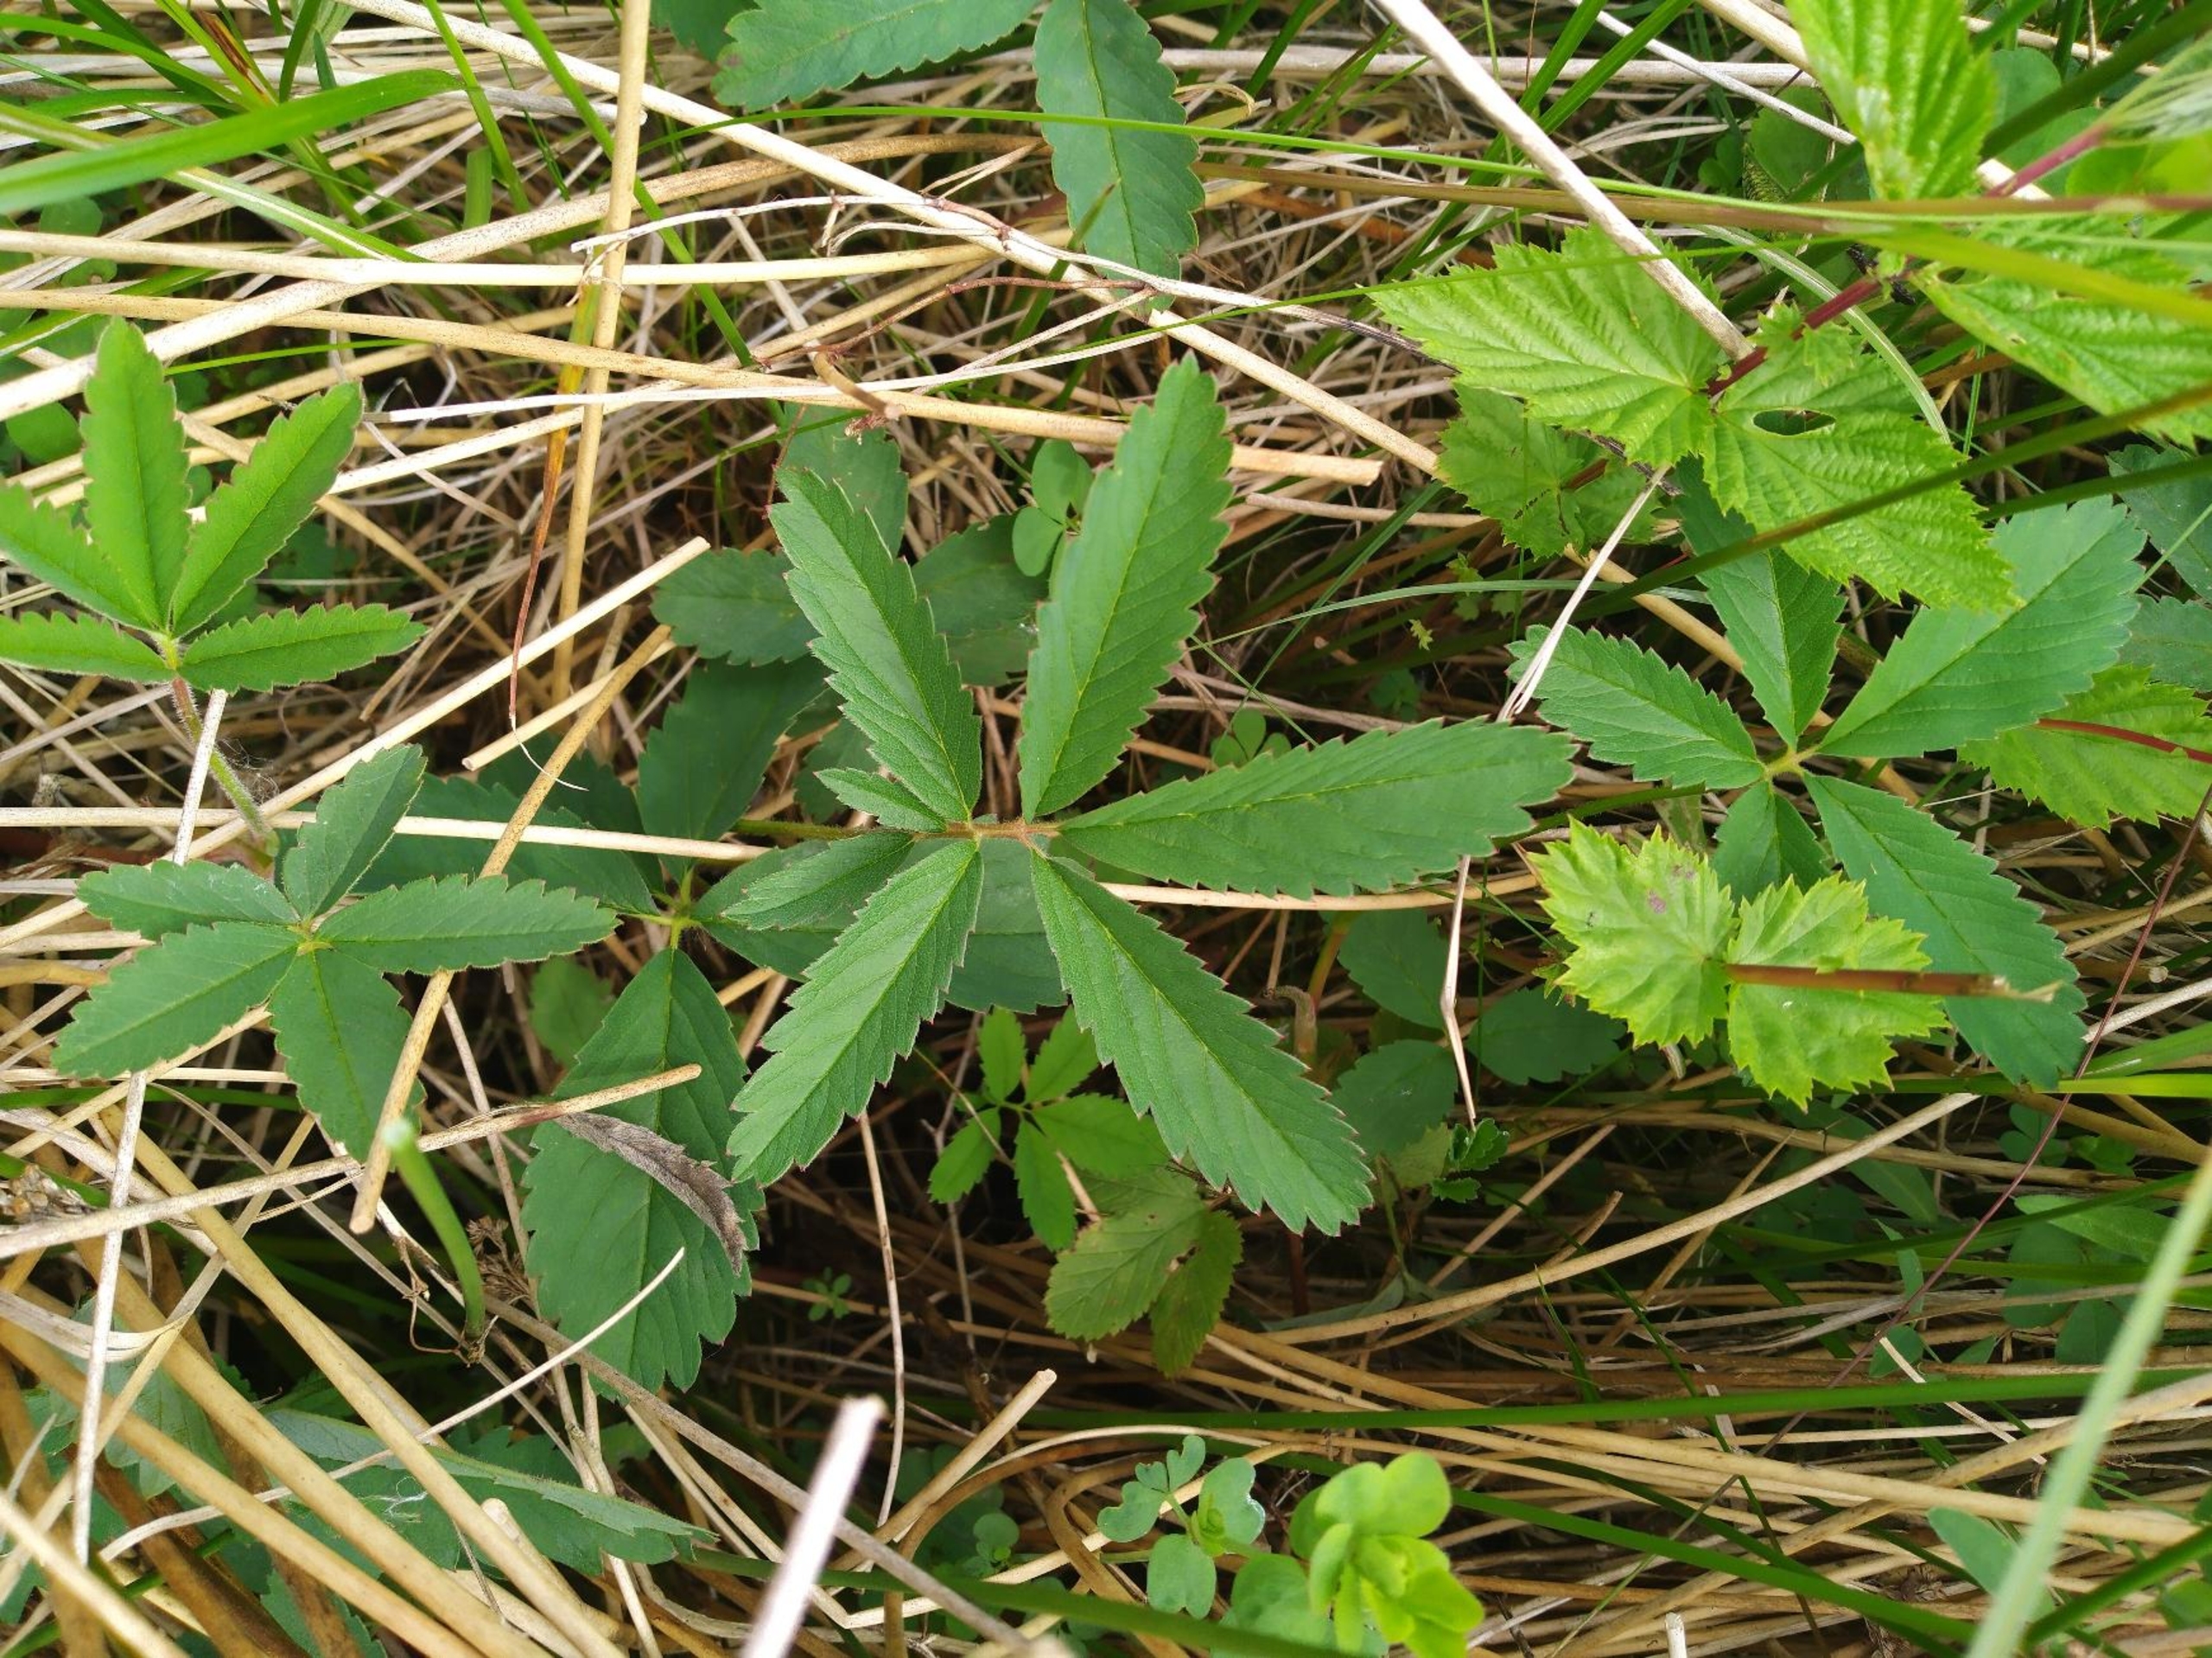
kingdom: Plantae
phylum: Tracheophyta
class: Magnoliopsida
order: Rosales
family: Rosaceae
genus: Comarum
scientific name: Comarum palustre
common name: Kragefod
